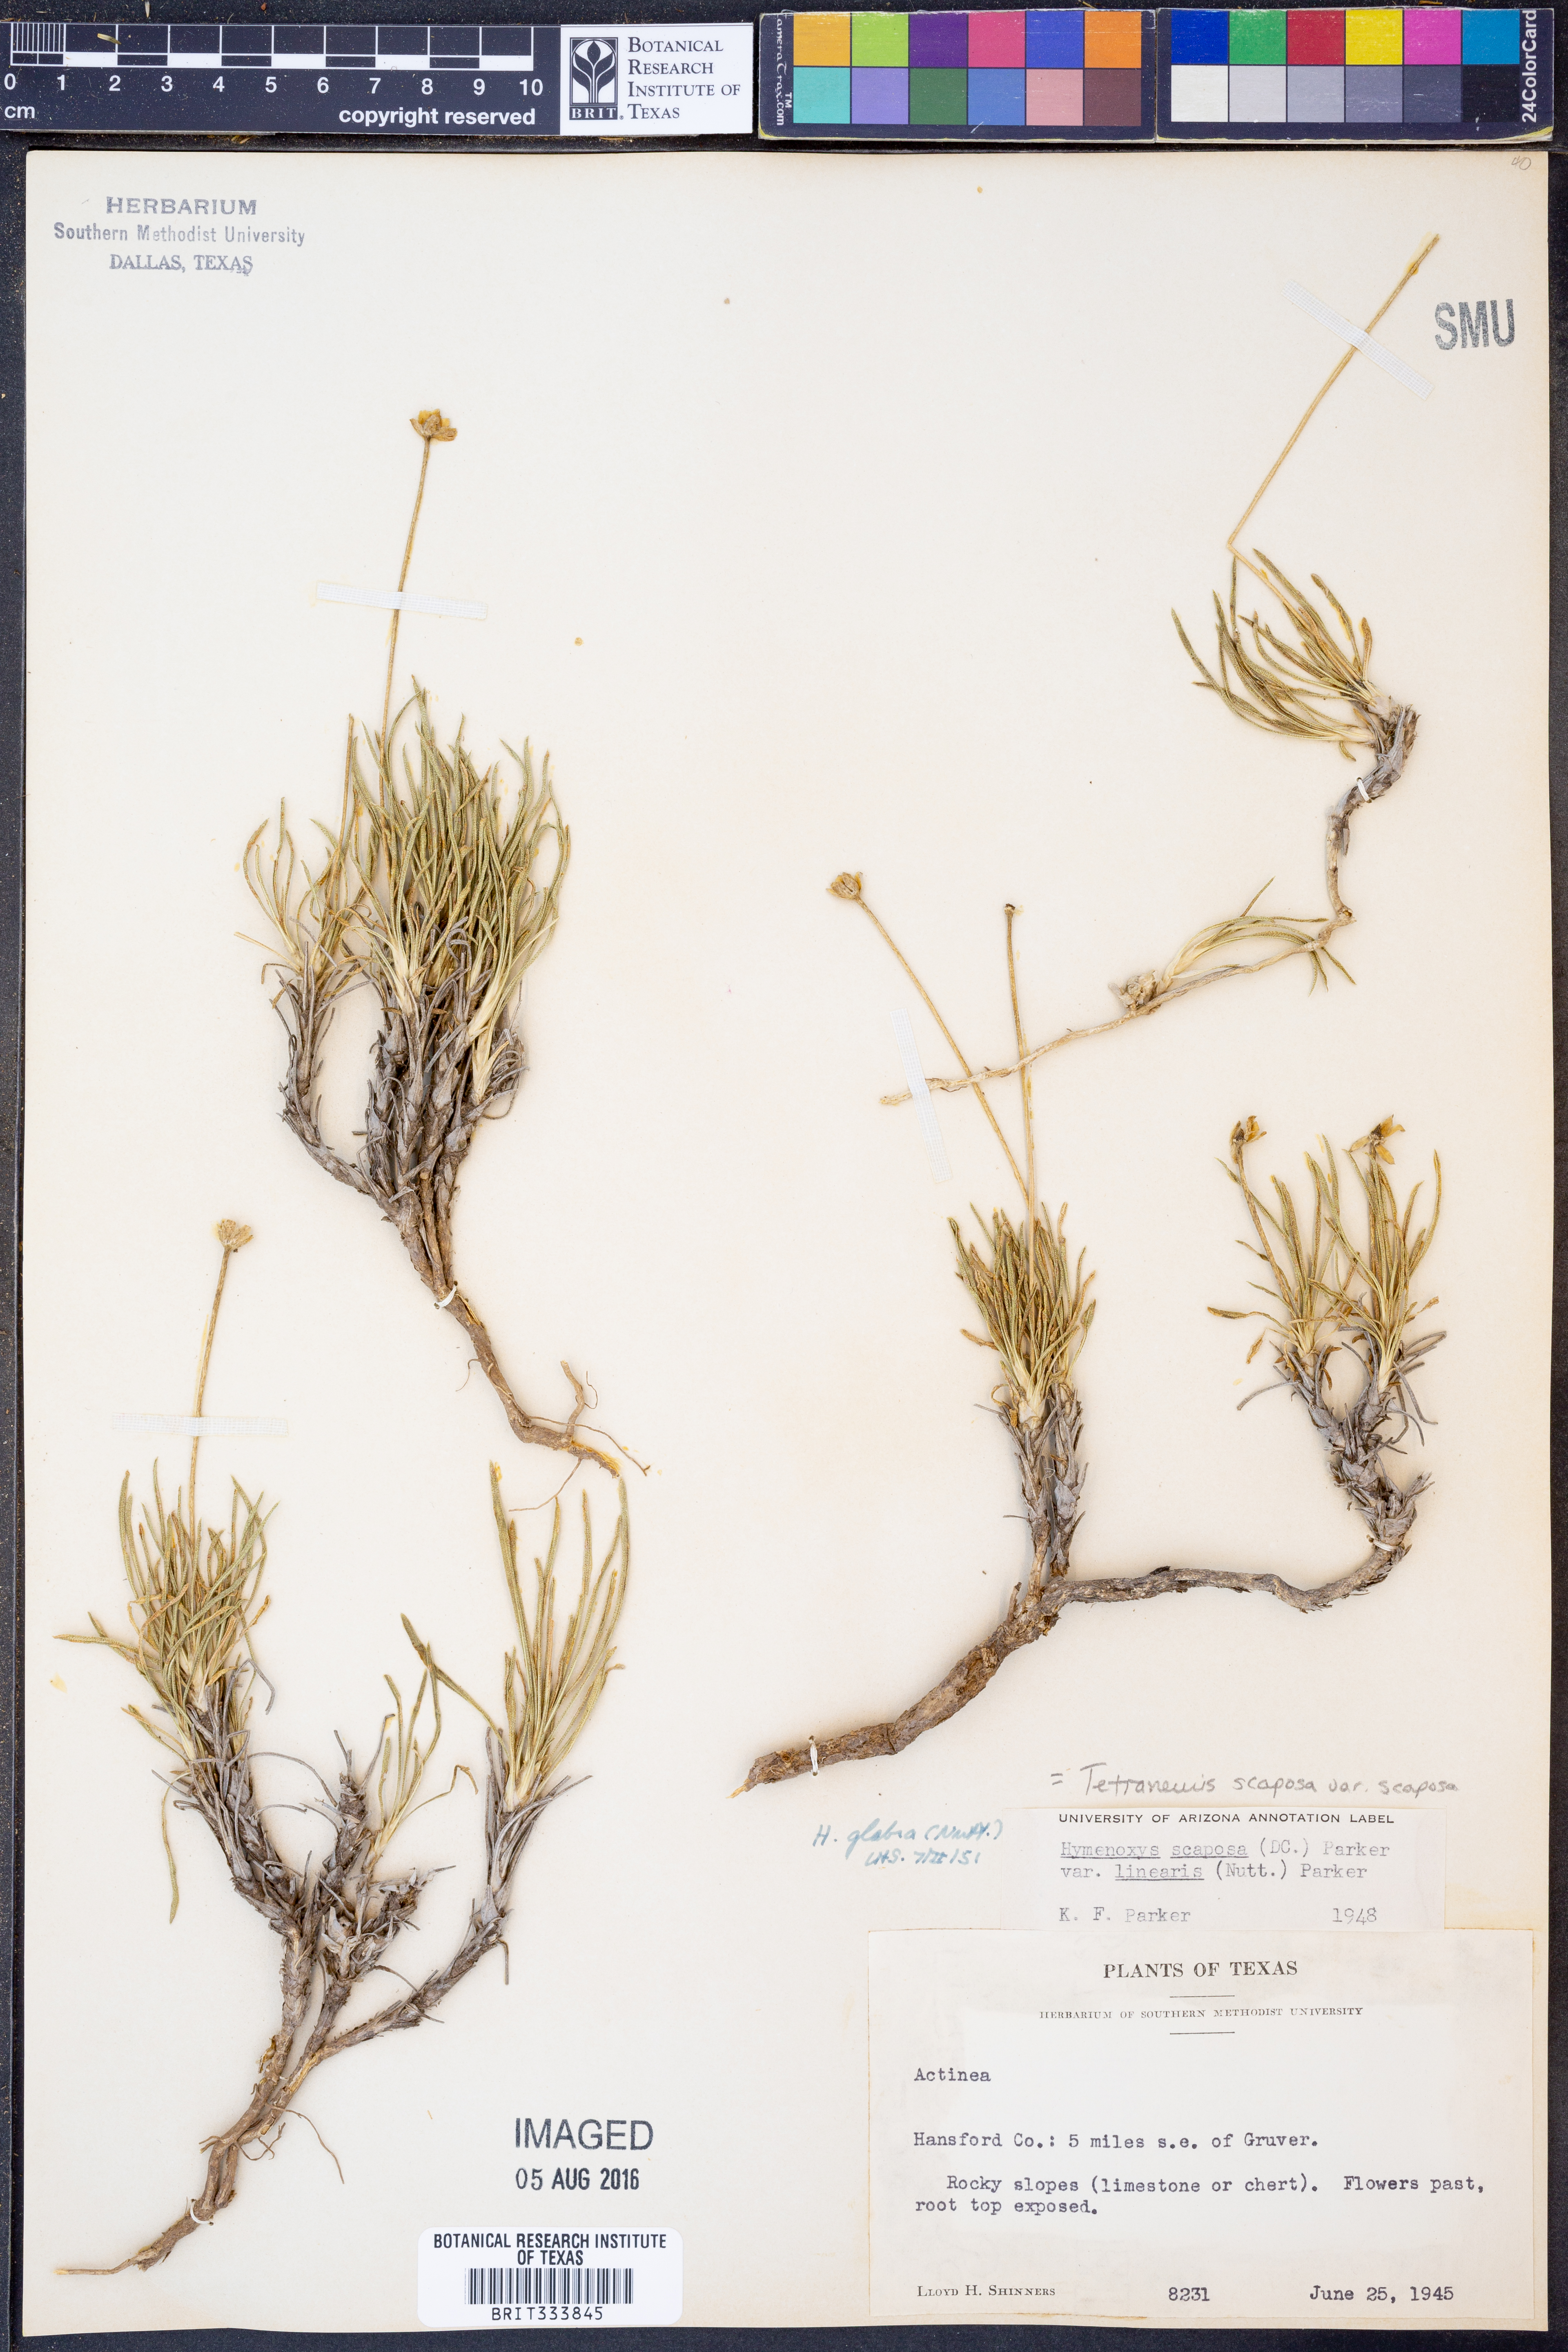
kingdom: Plantae
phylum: Tracheophyta
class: Magnoliopsida
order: Asterales
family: Asteraceae
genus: Tetraneuris
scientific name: Tetraneuris scaposa
